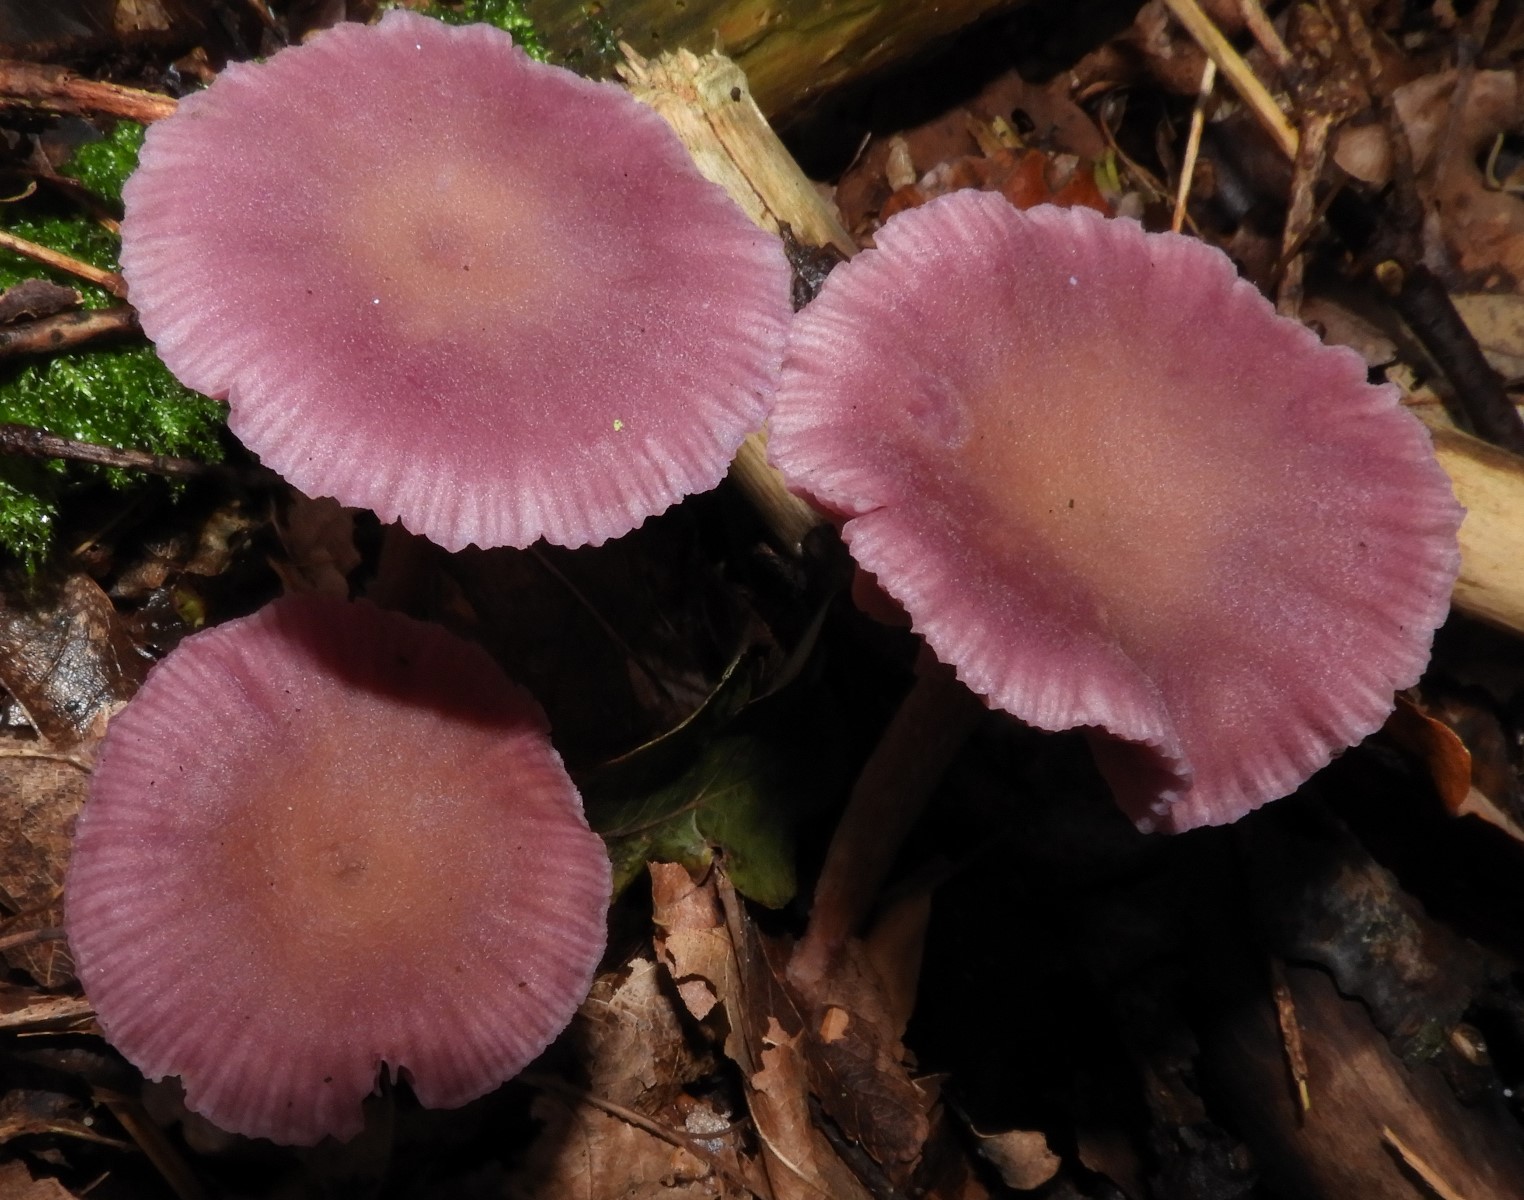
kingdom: Fungi
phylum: Basidiomycota
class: Agaricomycetes
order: Agaricales
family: Hydnangiaceae
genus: Laccaria
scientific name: Laccaria amethystina
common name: violet ametysthat
